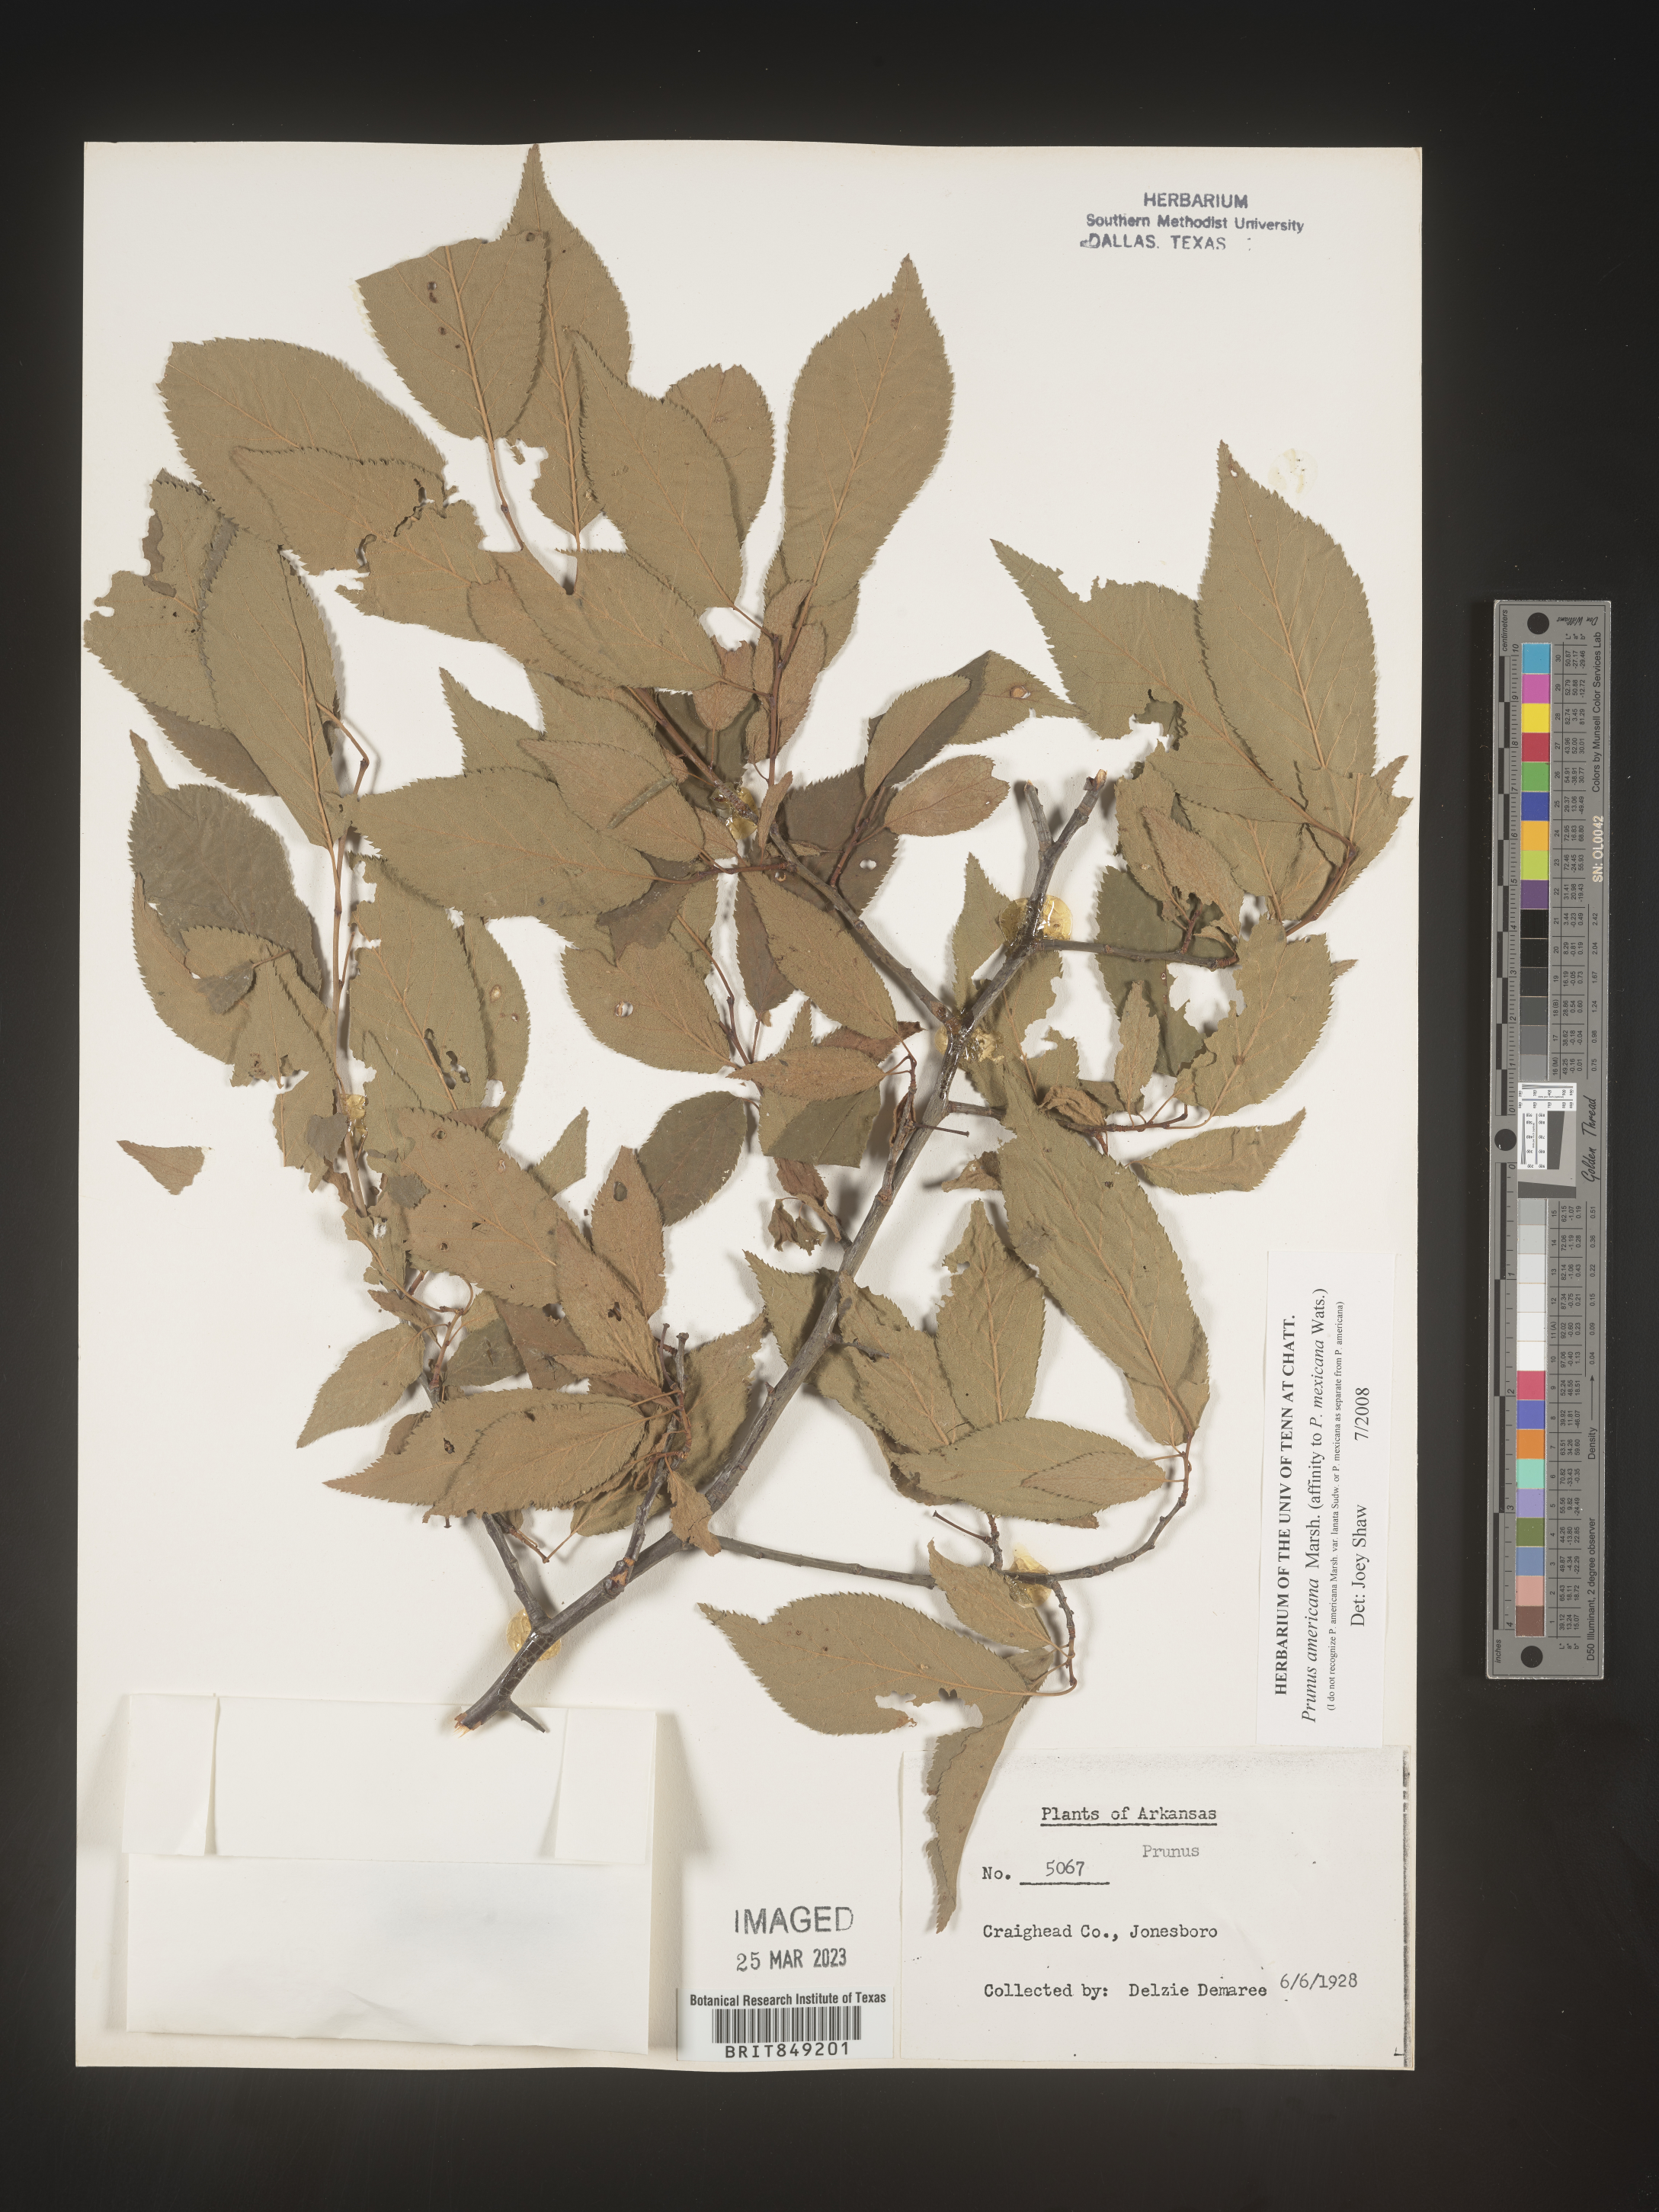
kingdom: Plantae
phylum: Tracheophyta
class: Magnoliopsida
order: Rosales
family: Rosaceae
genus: Prunus
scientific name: Prunus americana
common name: American plum
